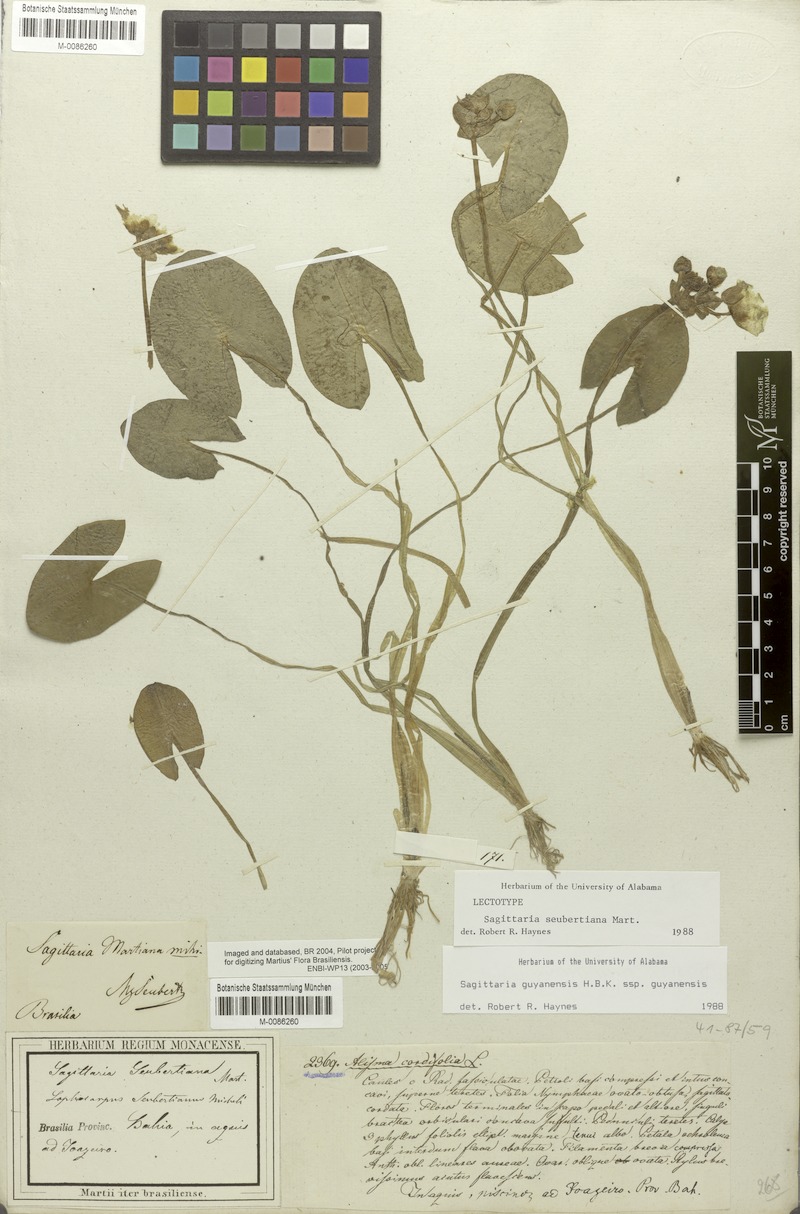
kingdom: Plantae
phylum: Tracheophyta
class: Liliopsida
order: Alismatales
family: Alismataceae
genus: Sagittaria
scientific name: Sagittaria guayanensis
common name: Guyanese arrowhead
